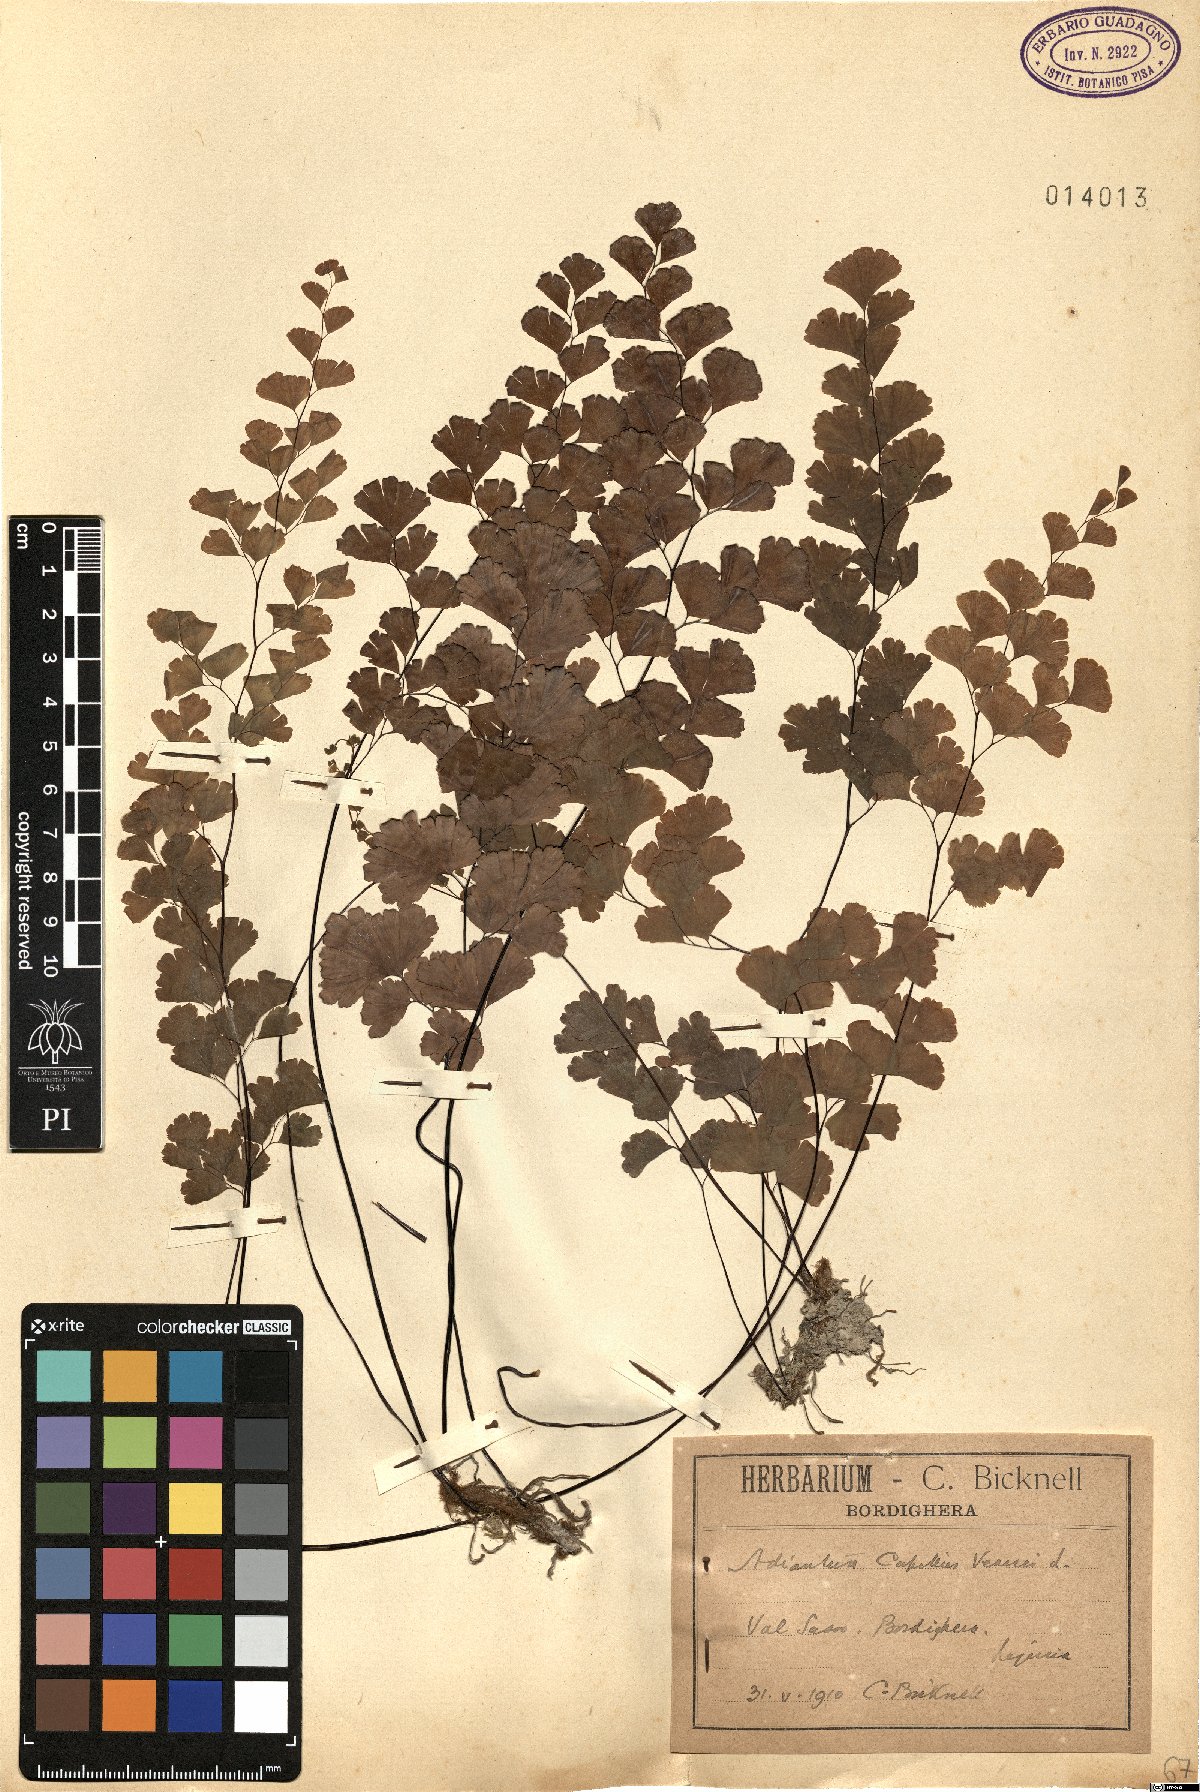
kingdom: Plantae
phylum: Tracheophyta
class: Polypodiopsida
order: Polypodiales
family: Pteridaceae
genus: Adiantum
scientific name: Adiantum capillus-veneris
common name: Maidenhair fern
